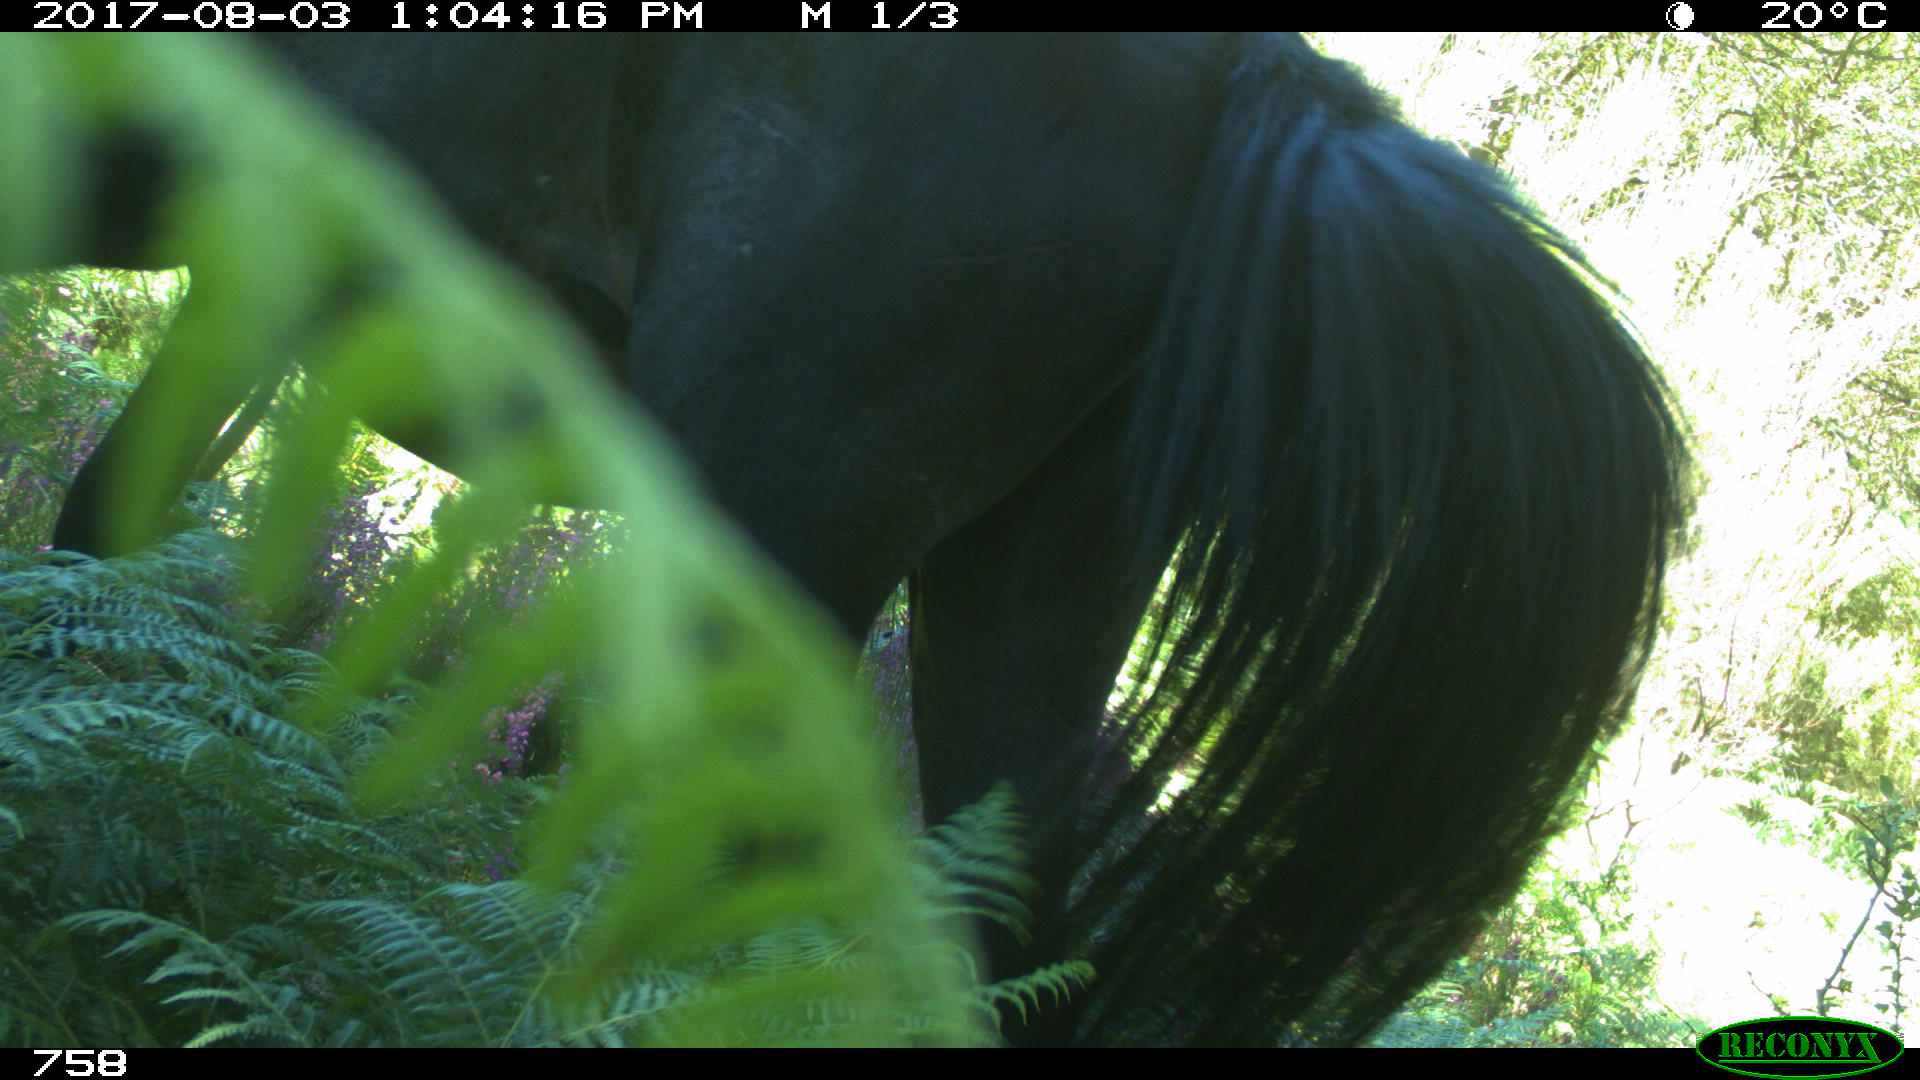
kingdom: Animalia
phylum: Chordata
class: Mammalia
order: Perissodactyla
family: Equidae
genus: Equus
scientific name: Equus caballus
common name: Horse
